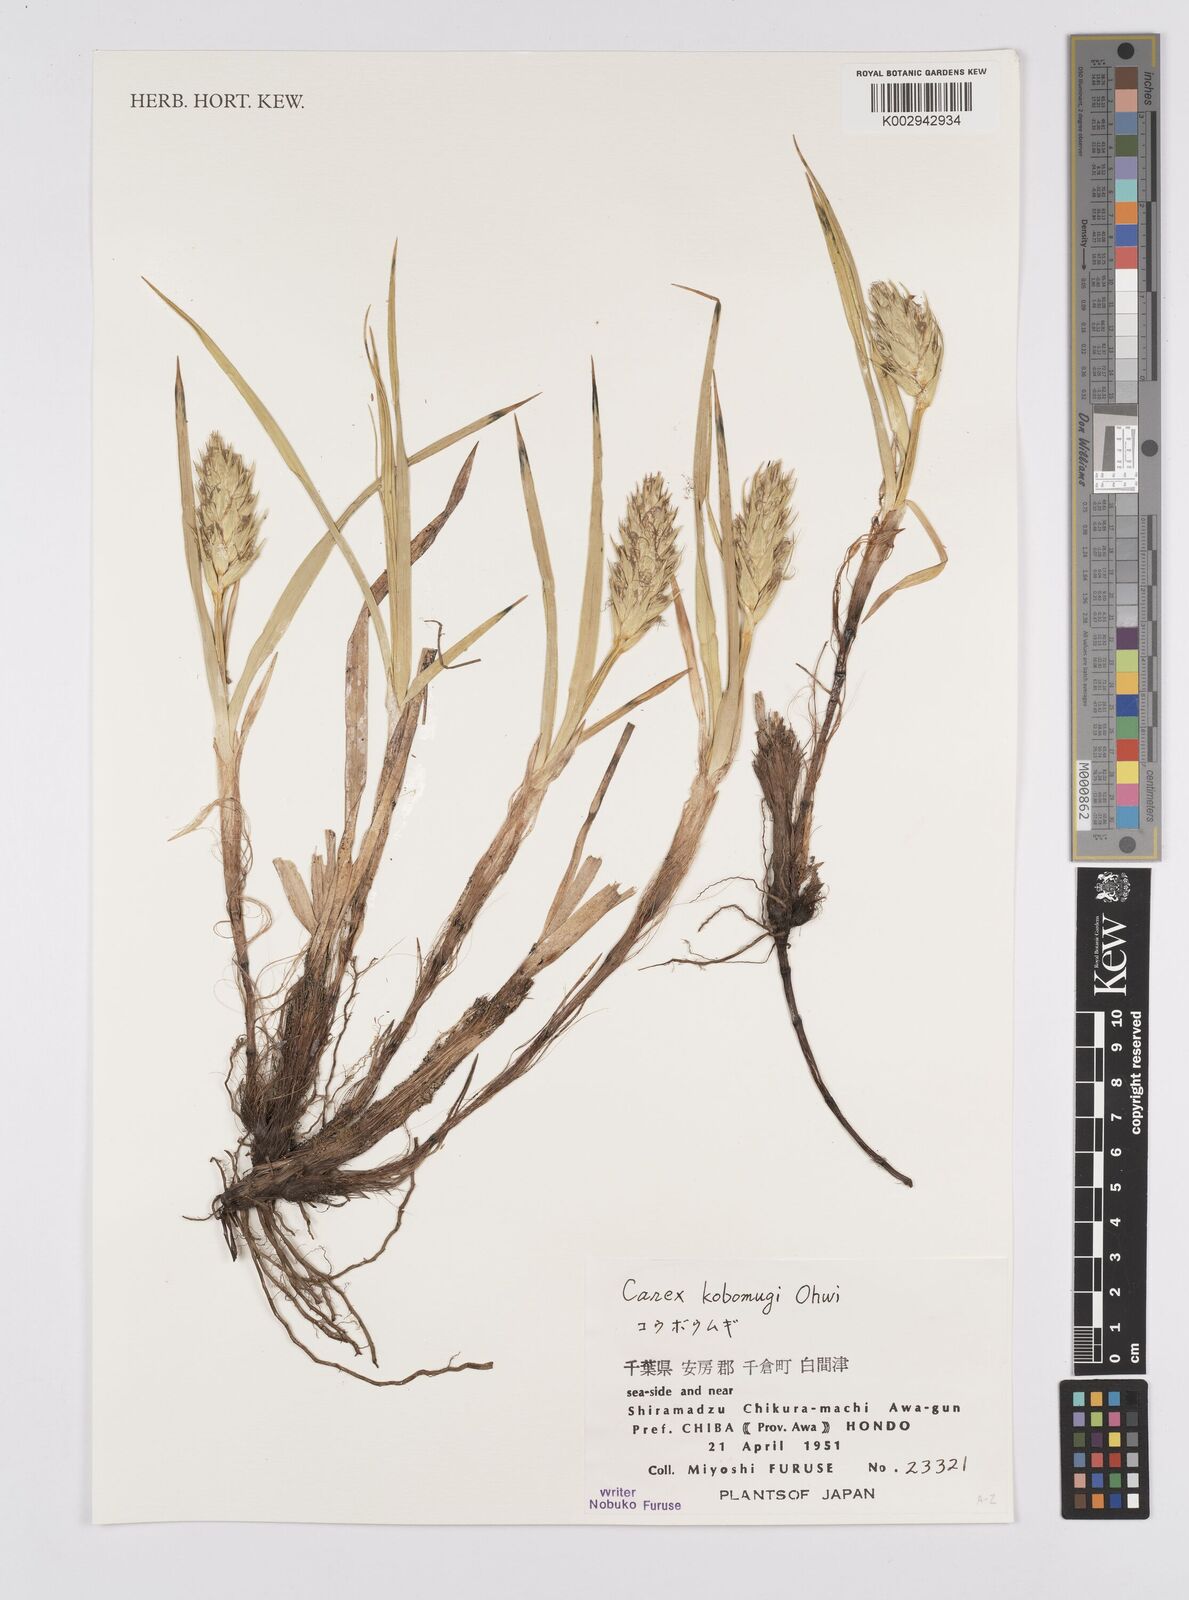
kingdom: Plantae
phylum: Tracheophyta
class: Liliopsida
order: Poales
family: Cyperaceae
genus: Carex
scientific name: Carex kobomugi
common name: Japanese sedge
